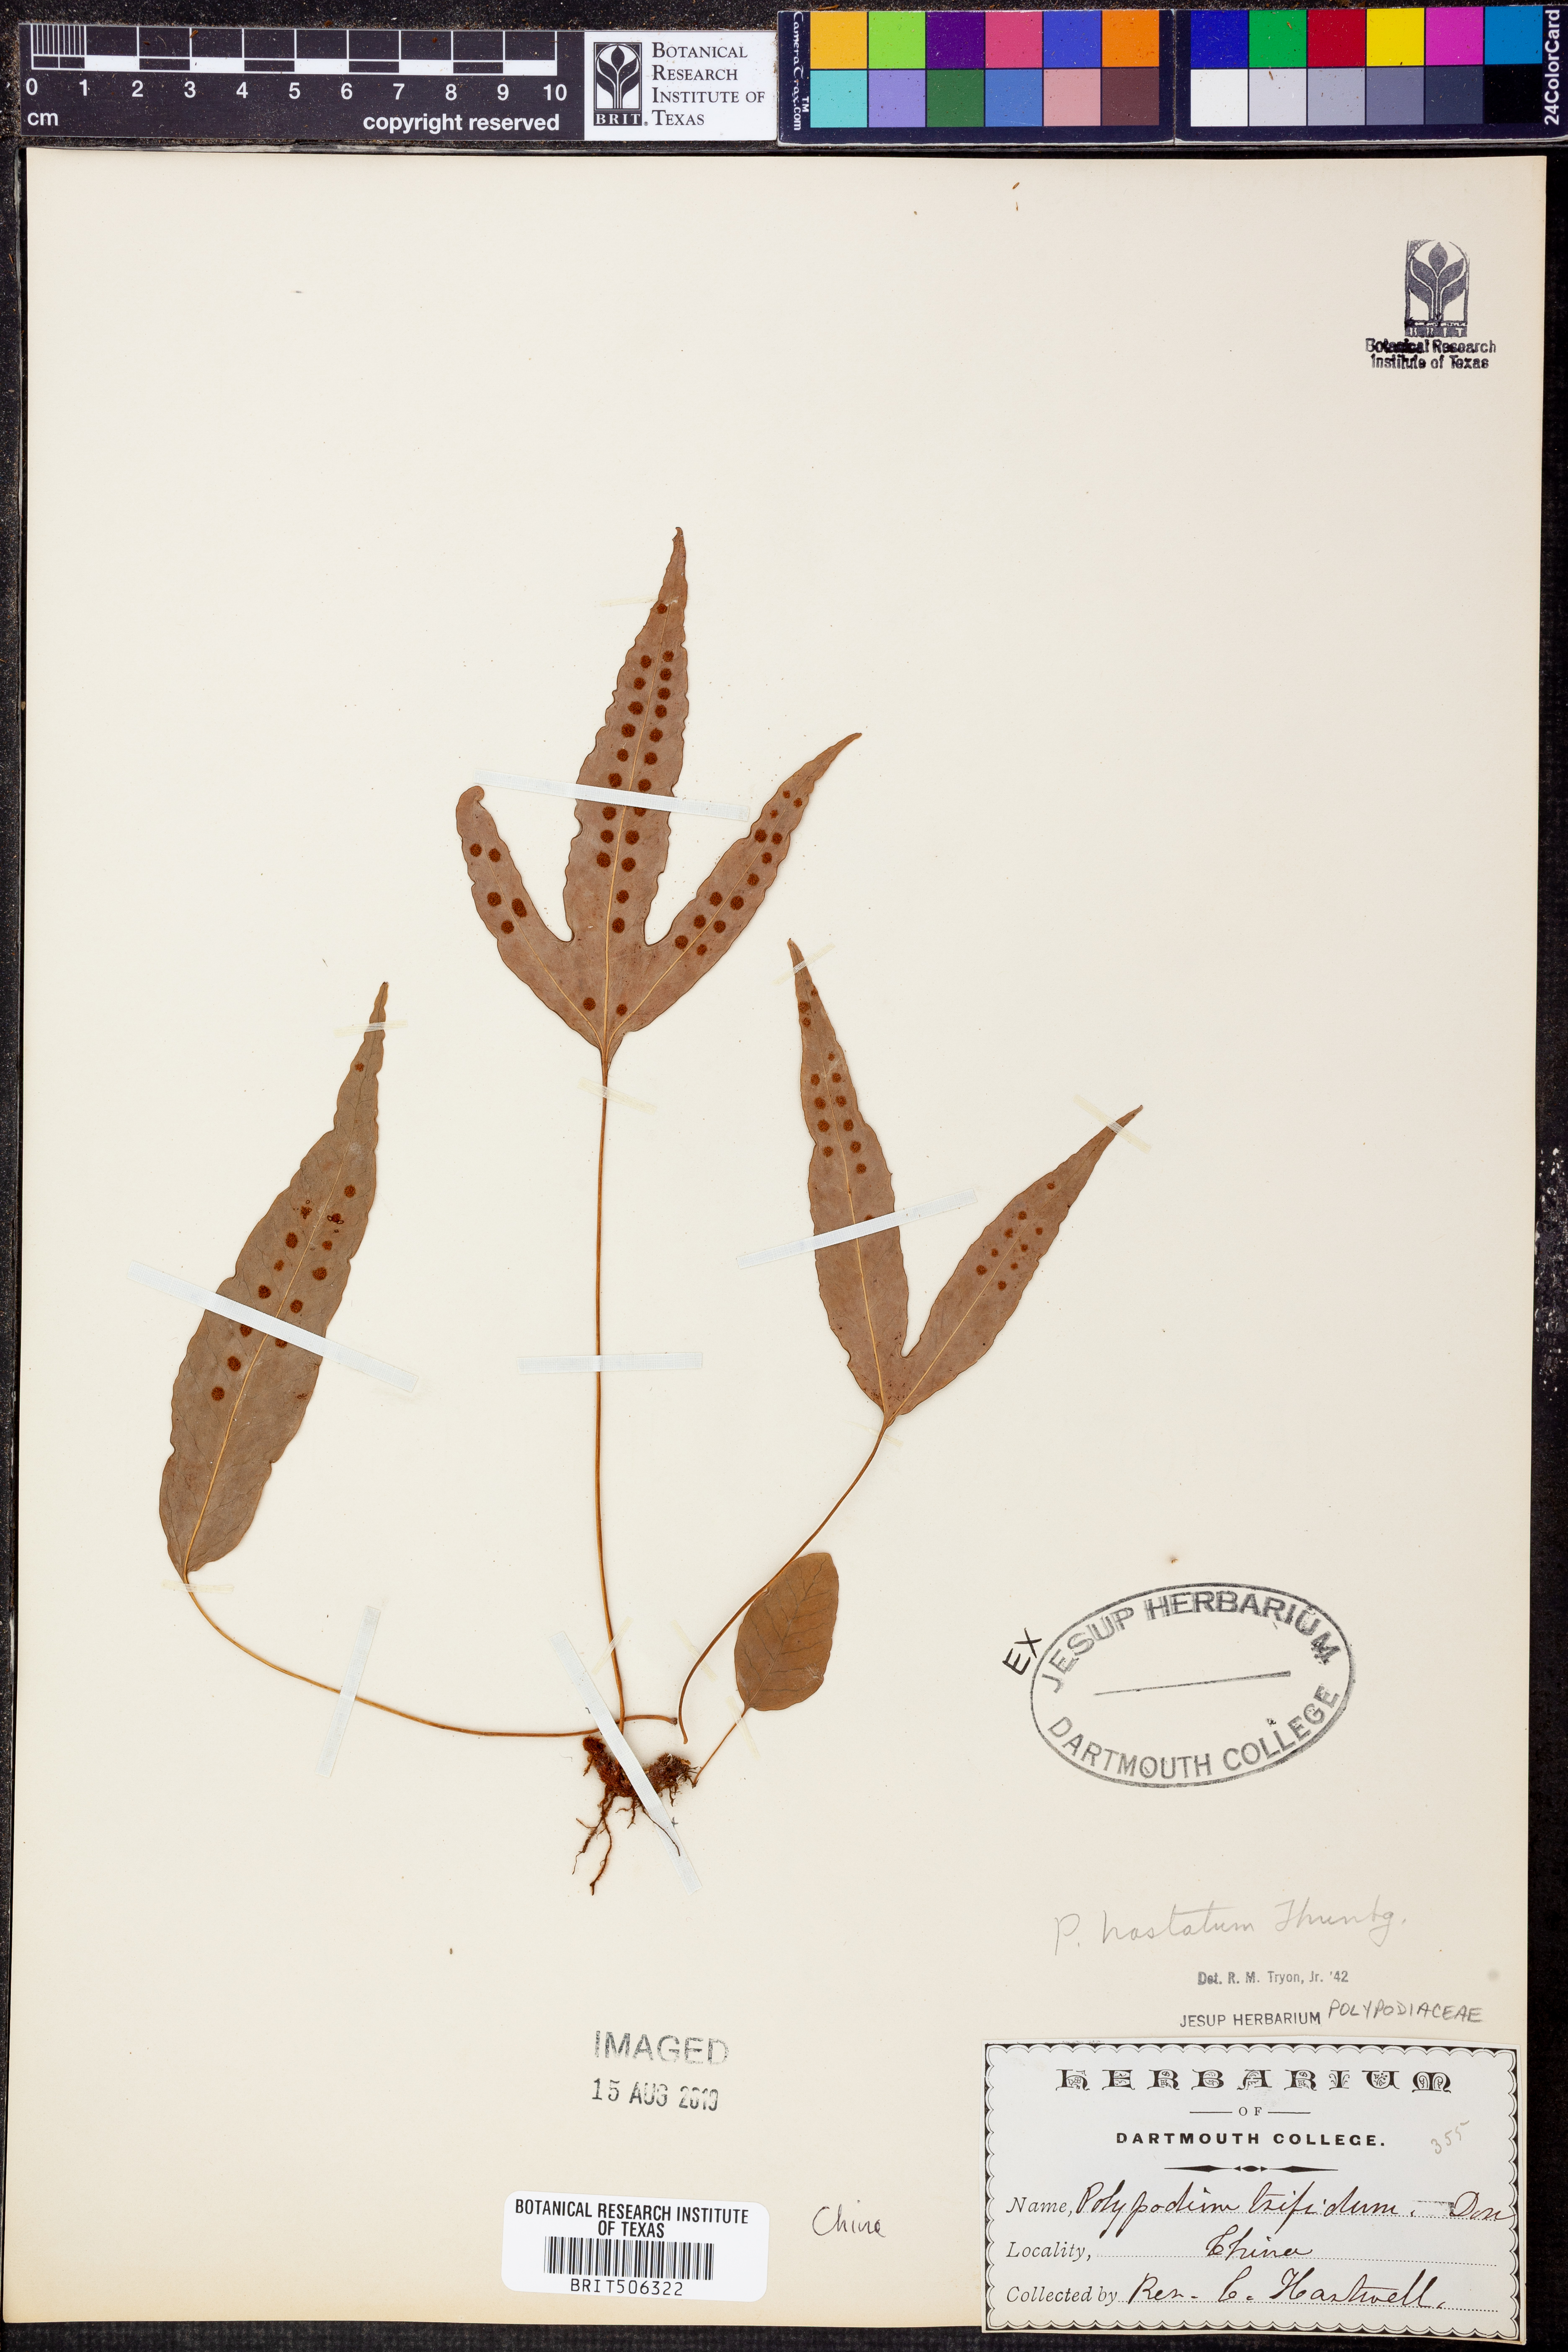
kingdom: Plantae
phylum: Tracheophyta
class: Polypodiopsida
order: Polypodiales
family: Polypodiaceae
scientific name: Polypodiaceae
